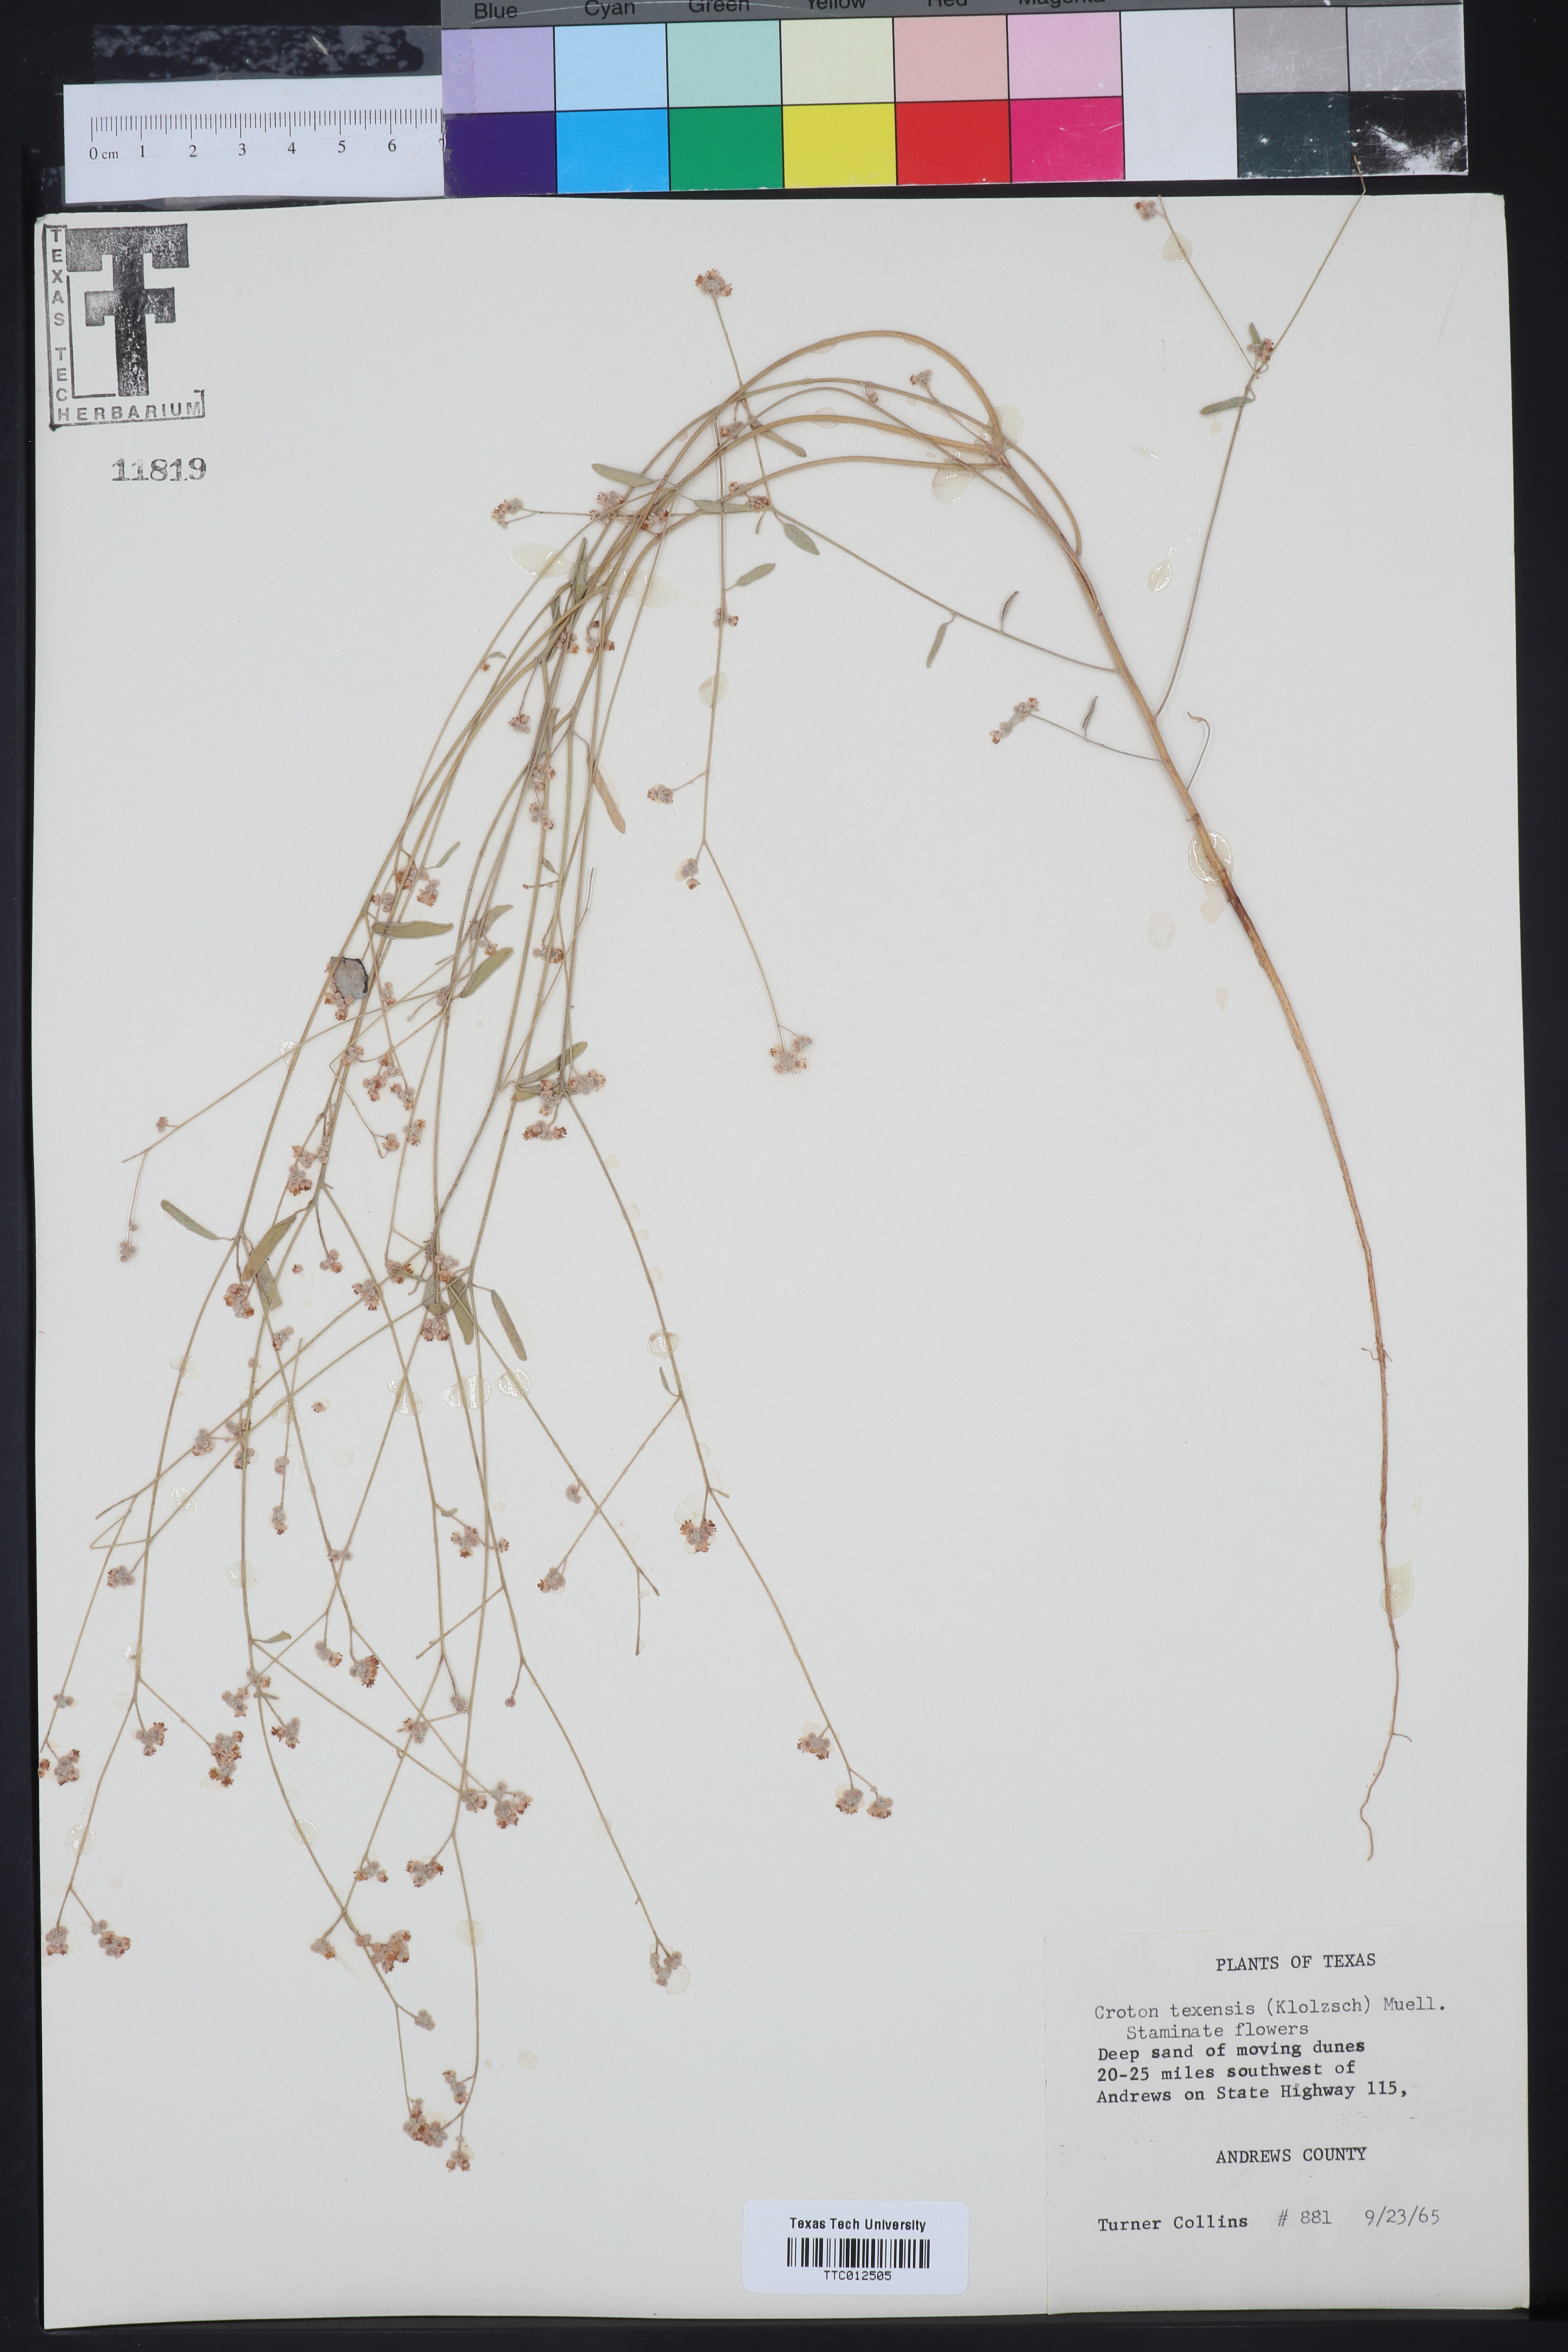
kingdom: Plantae
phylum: Tracheophyta
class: Magnoliopsida
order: Malpighiales
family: Euphorbiaceae
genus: Croton
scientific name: Croton texensis
